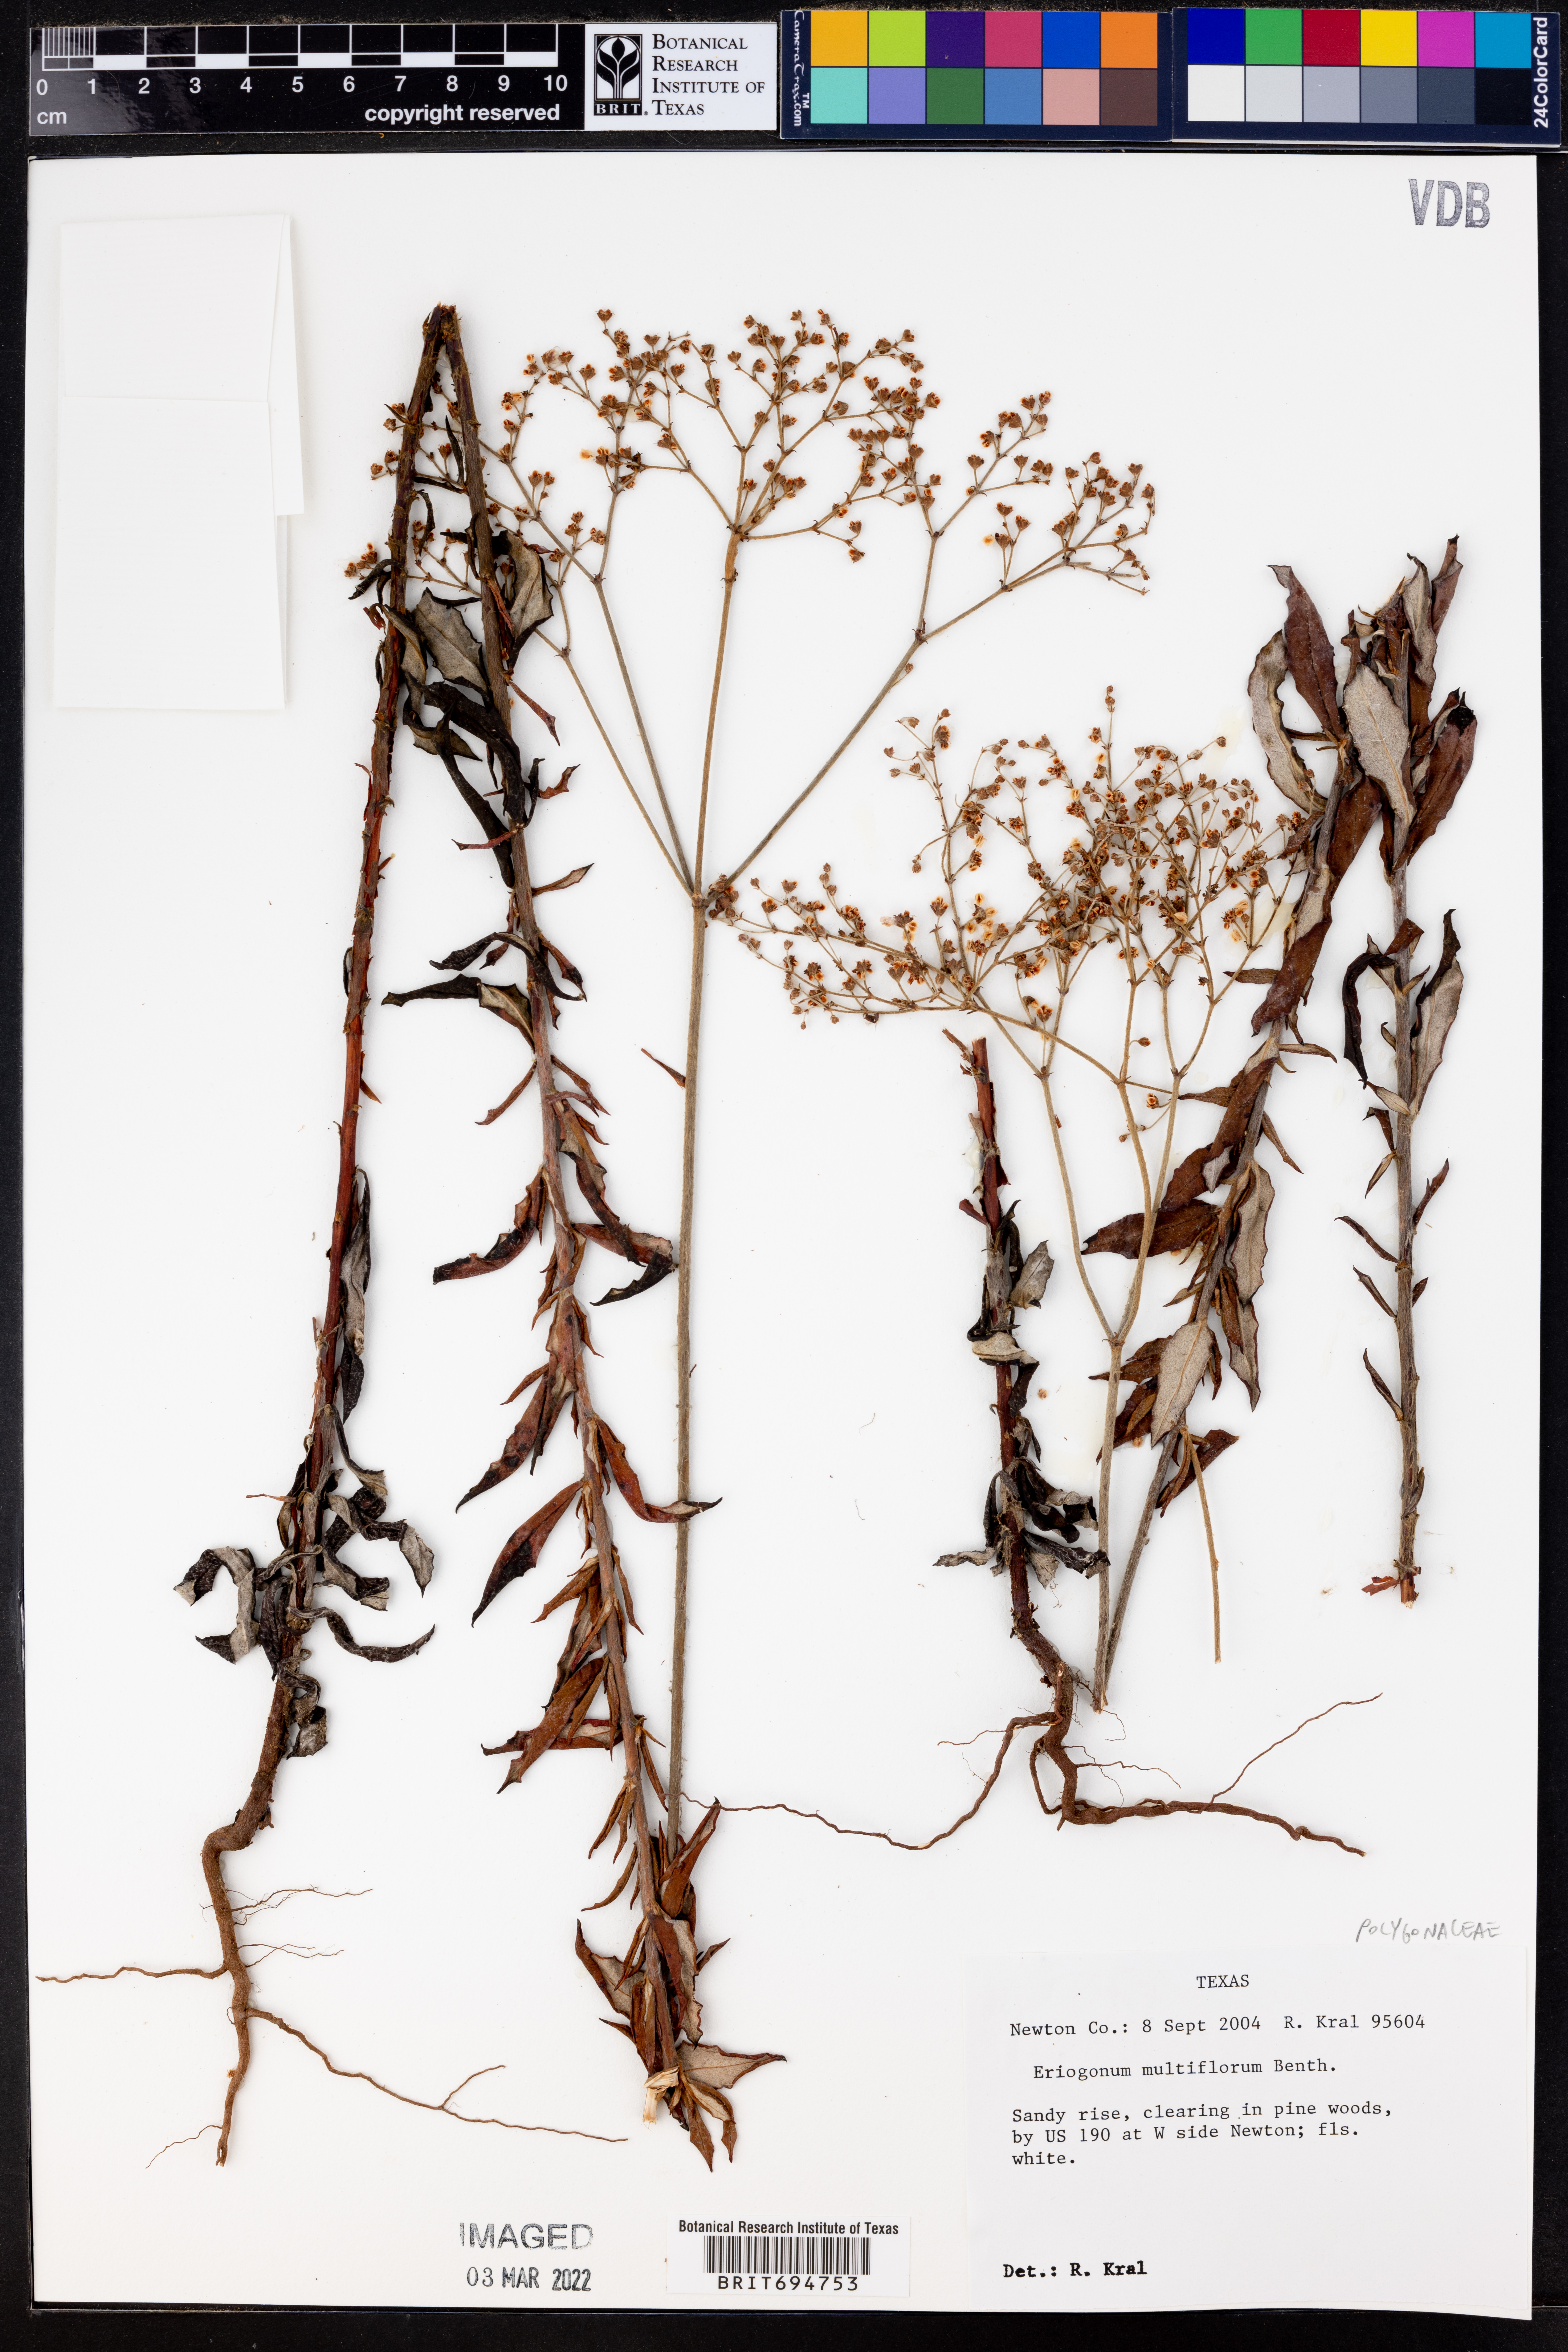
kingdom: Plantae
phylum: Tracheophyta
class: Magnoliopsida
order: Caryophyllales
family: Polygonaceae
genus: Eriogonum
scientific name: Eriogonum multiflorum
